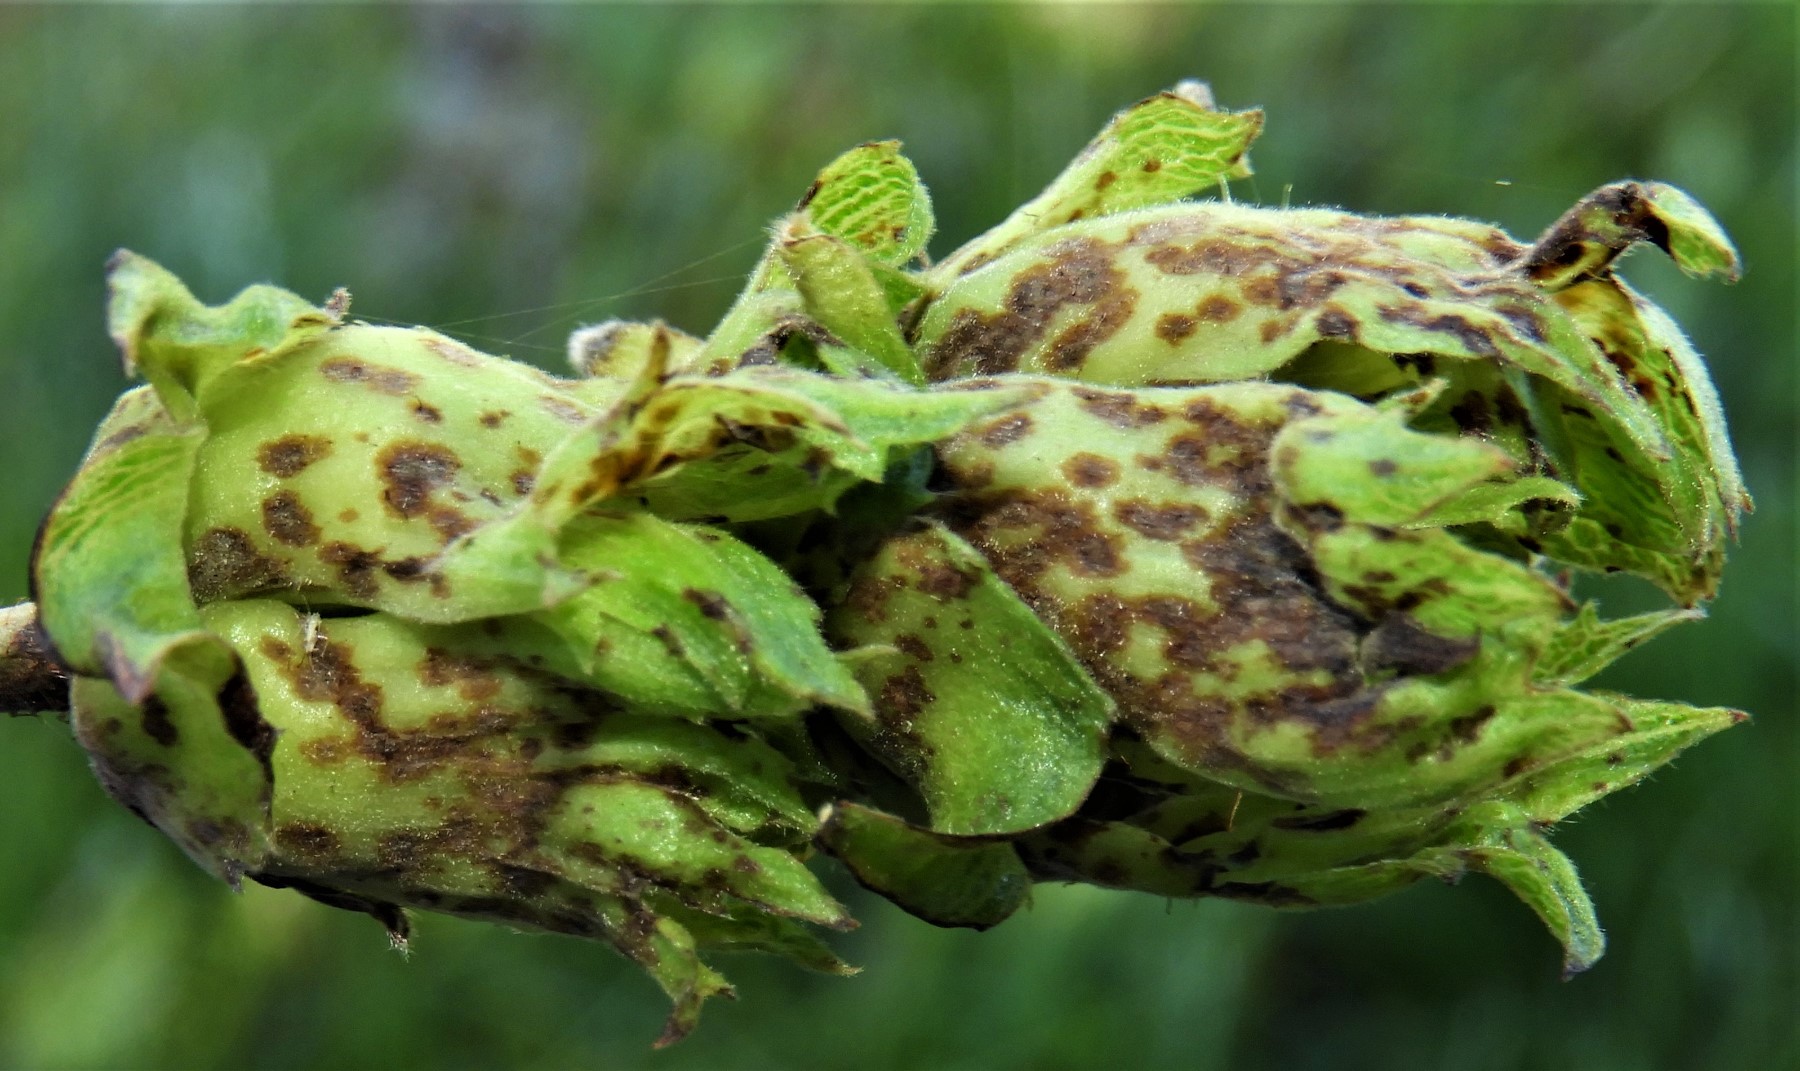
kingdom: Fungi
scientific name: Fungi
